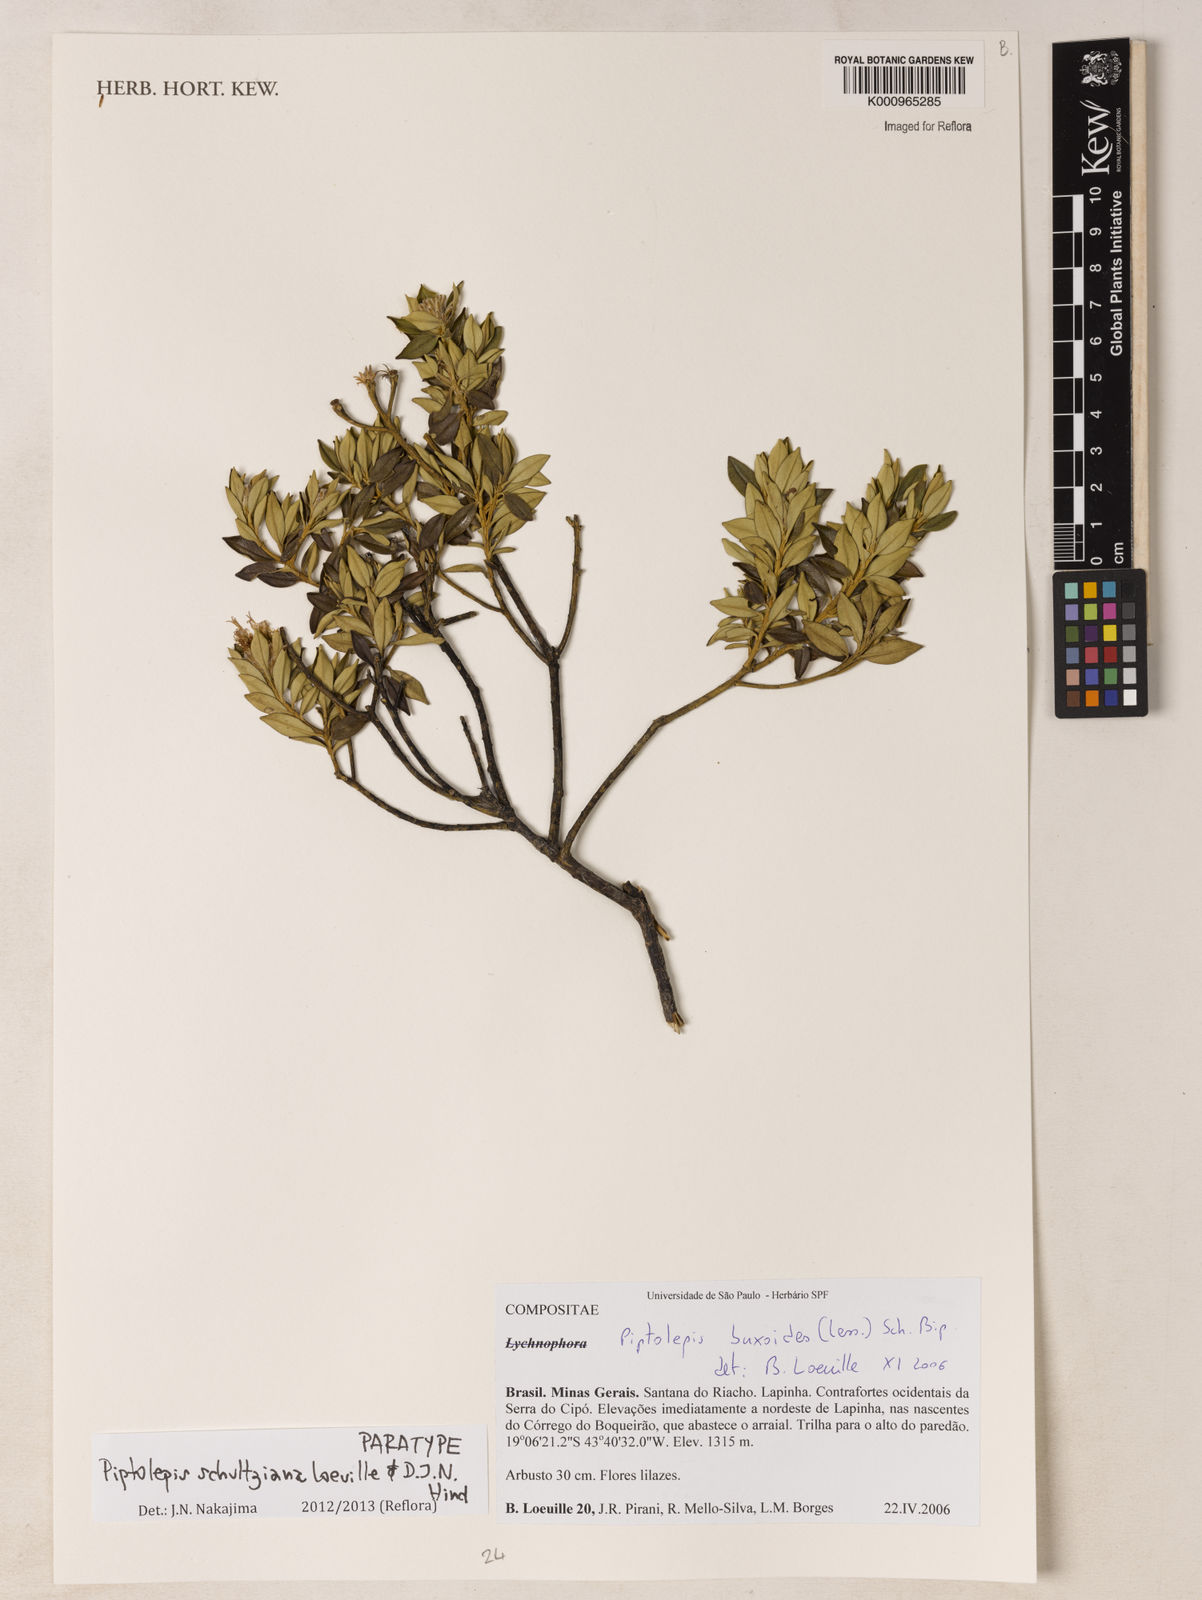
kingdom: Plantae
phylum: Tracheophyta
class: Magnoliopsida
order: Asterales
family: Asteraceae
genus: Piptolepis
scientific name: Piptolepis schultziana
